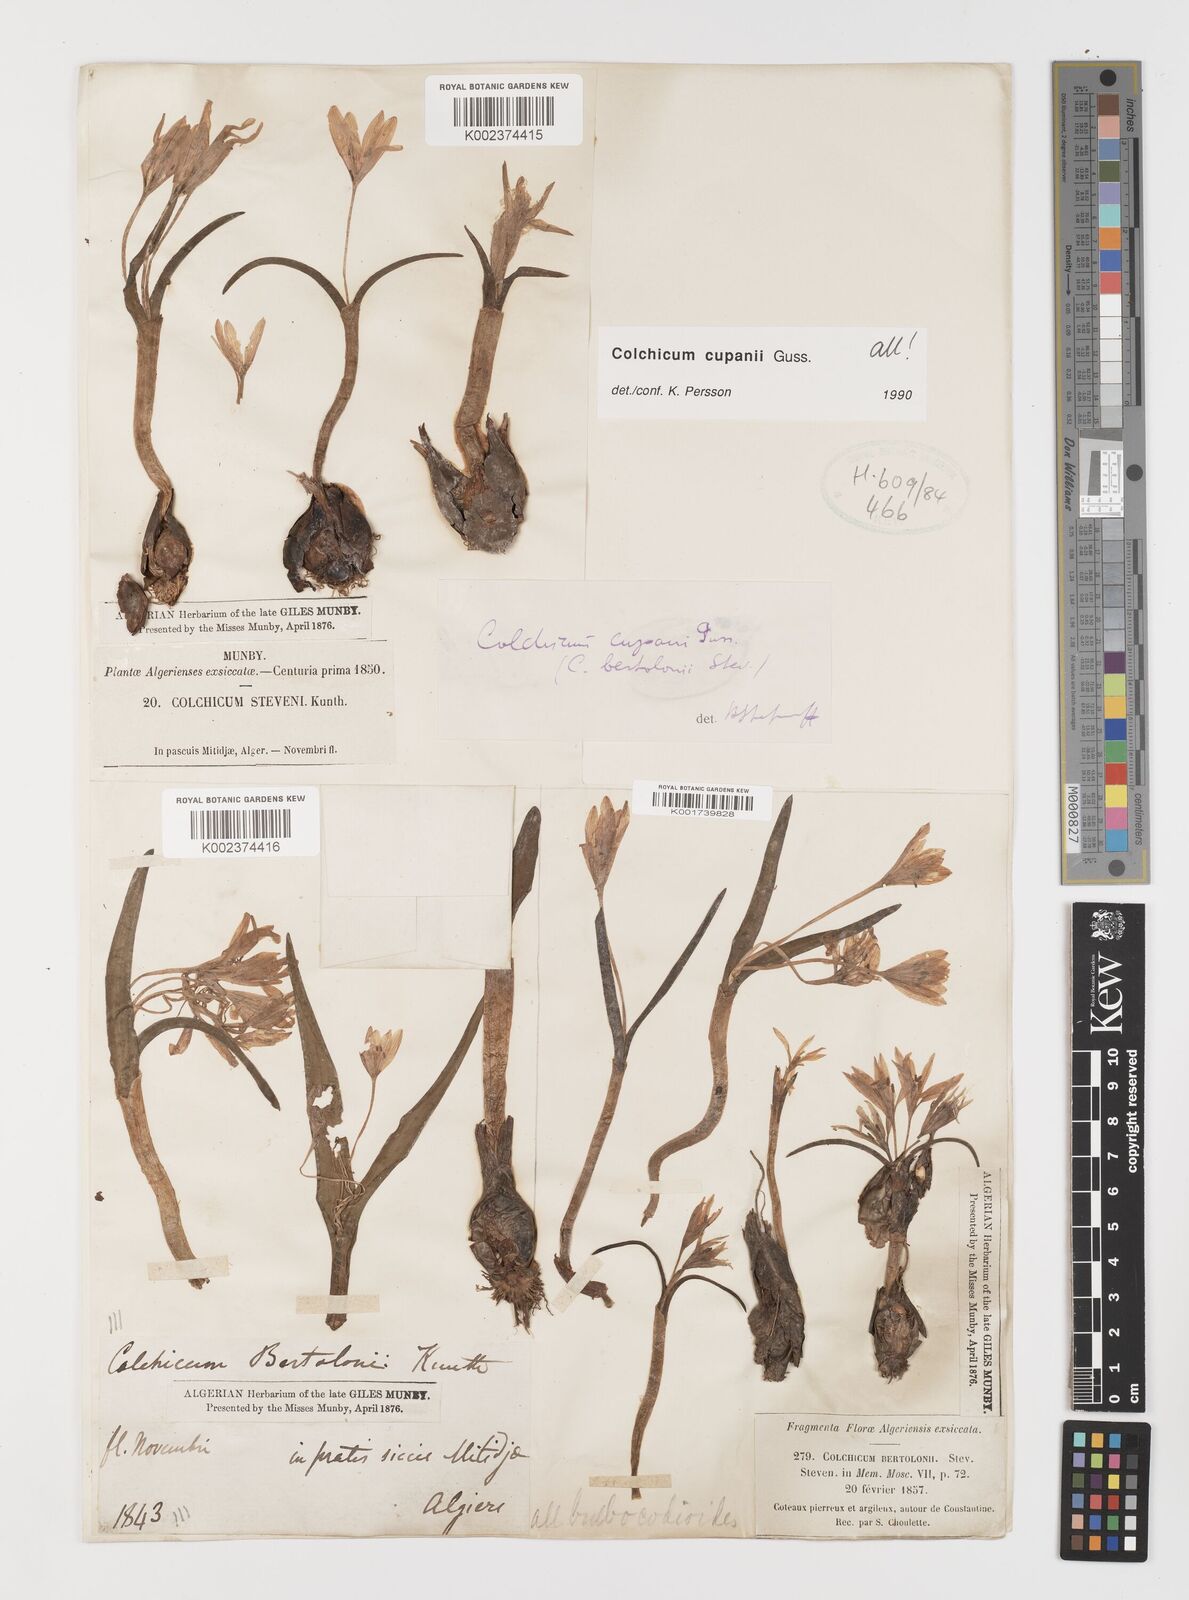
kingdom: Plantae
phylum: Tracheophyta
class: Liliopsida
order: Liliales
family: Colchicaceae
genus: Colchicum
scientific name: Colchicum cupanii
